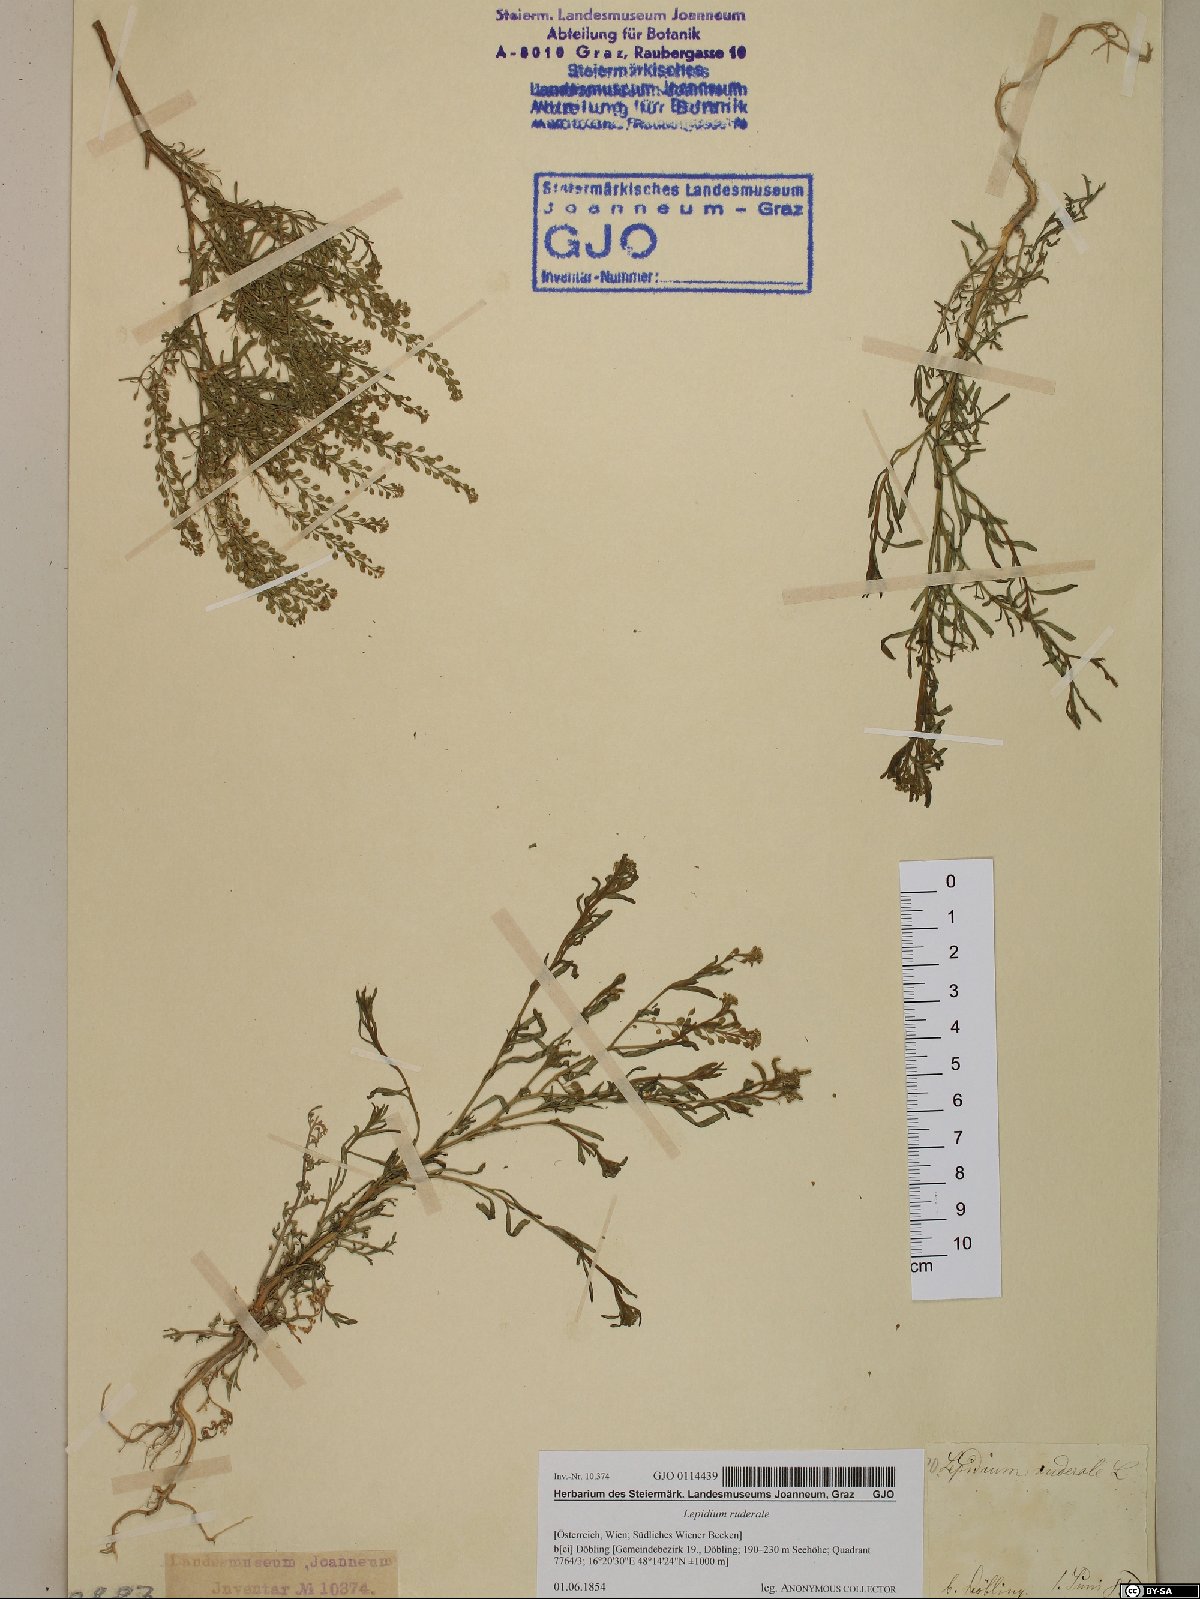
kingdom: Plantae
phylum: Tracheophyta
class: Magnoliopsida
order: Brassicales
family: Brassicaceae
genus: Lepidium
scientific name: Lepidium ruderale
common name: Narrow-leaved pepperwort
